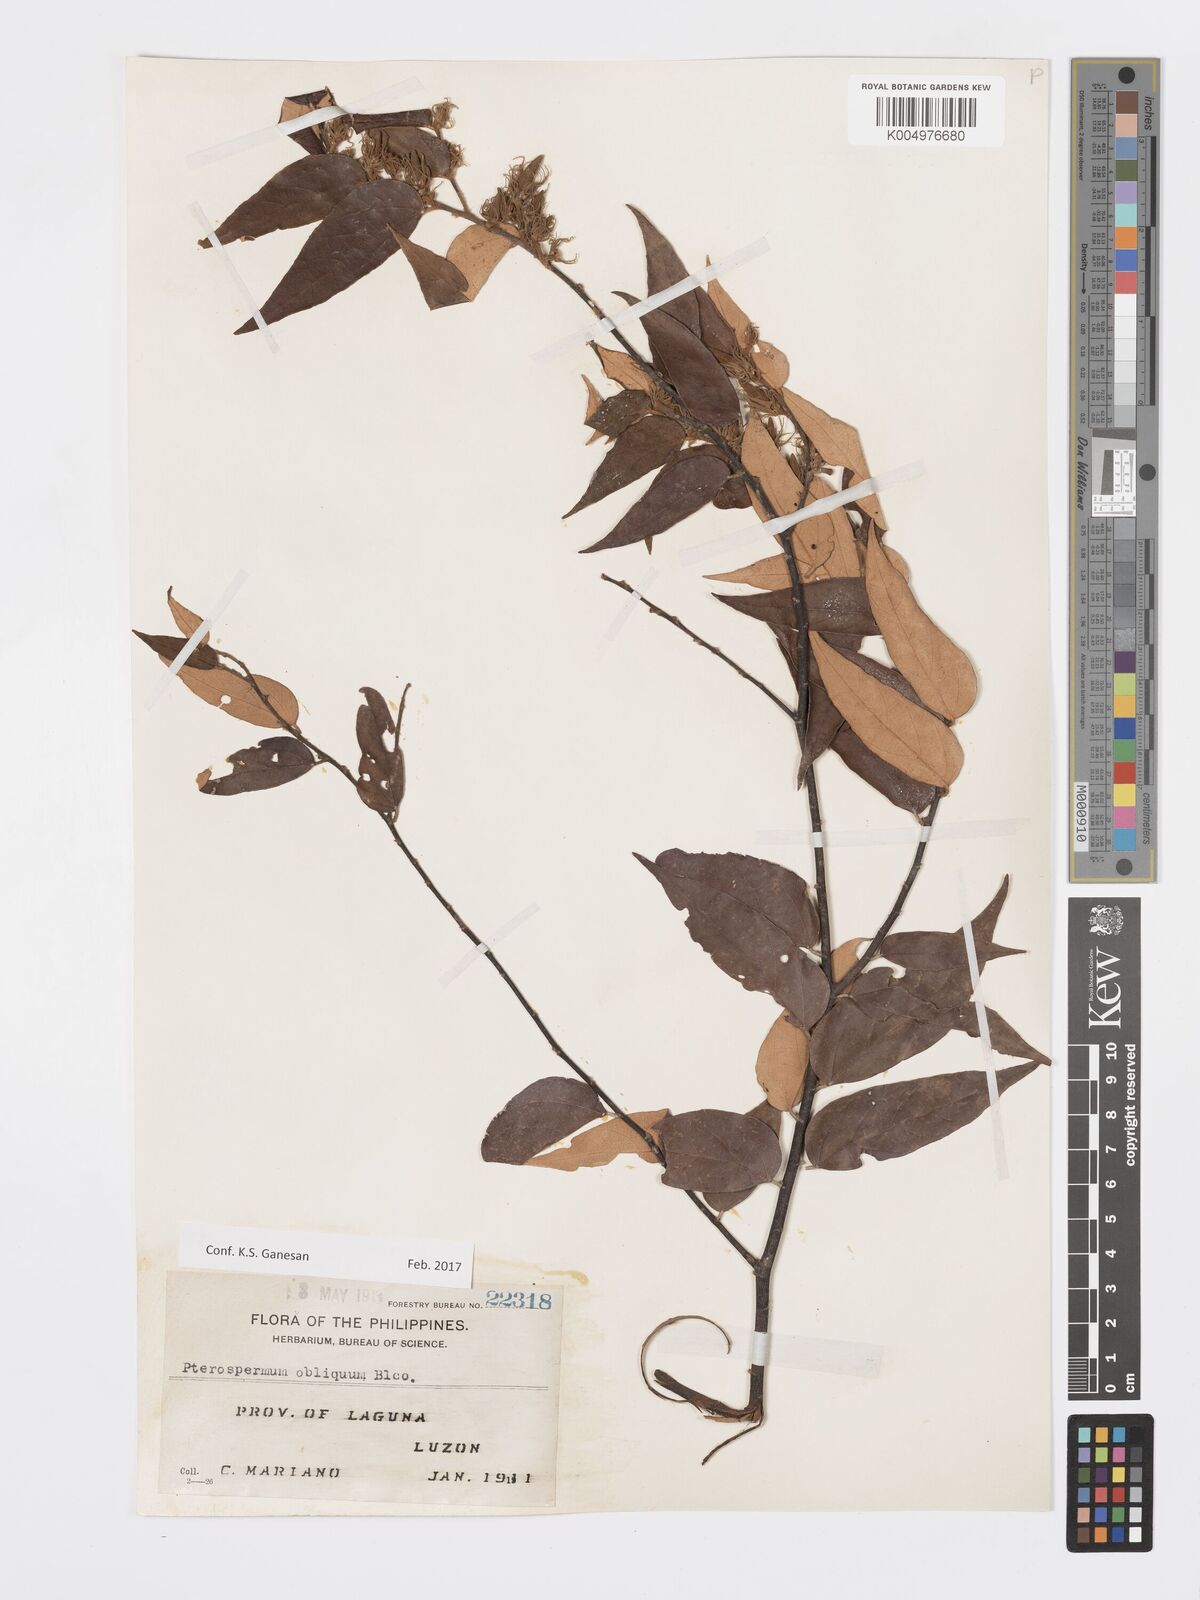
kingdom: Plantae
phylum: Tracheophyta
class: Magnoliopsida
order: Malvales
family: Malvaceae
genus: Pterospermum
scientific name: Pterospermum obliquum
